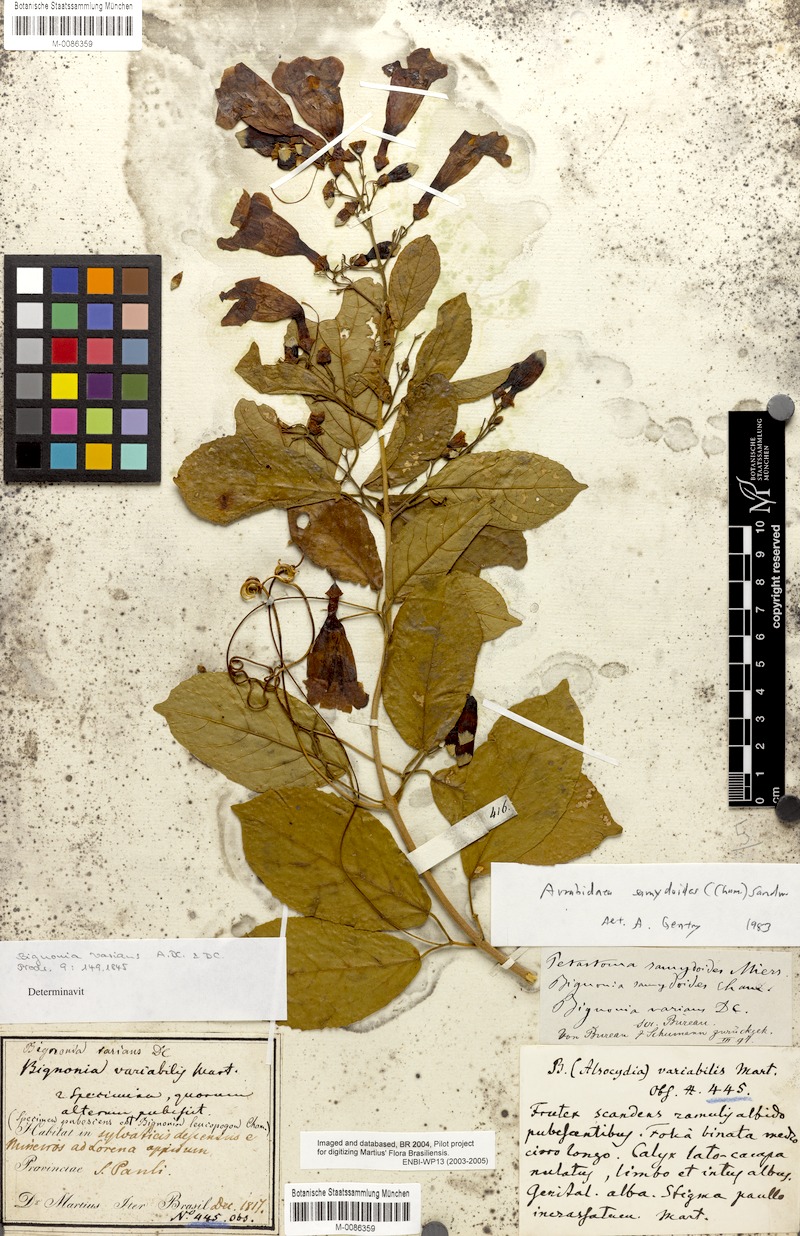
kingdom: Plantae
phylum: Tracheophyta
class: Magnoliopsida
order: Lamiales
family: Bignoniaceae
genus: Fridericia
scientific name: Fridericia samydoides
